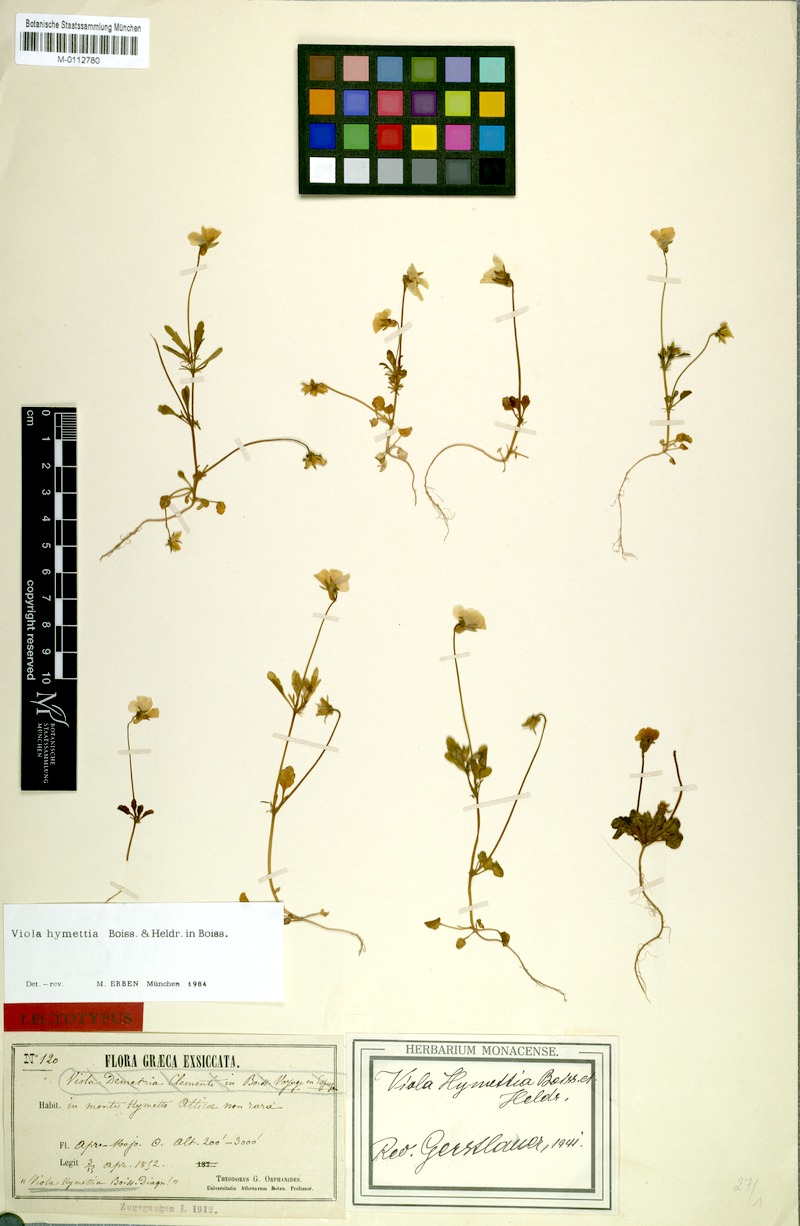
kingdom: Plantae
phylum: Tracheophyta
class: Magnoliopsida
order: Malpighiales
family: Violaceae
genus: Viola
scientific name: Viola hymettia
